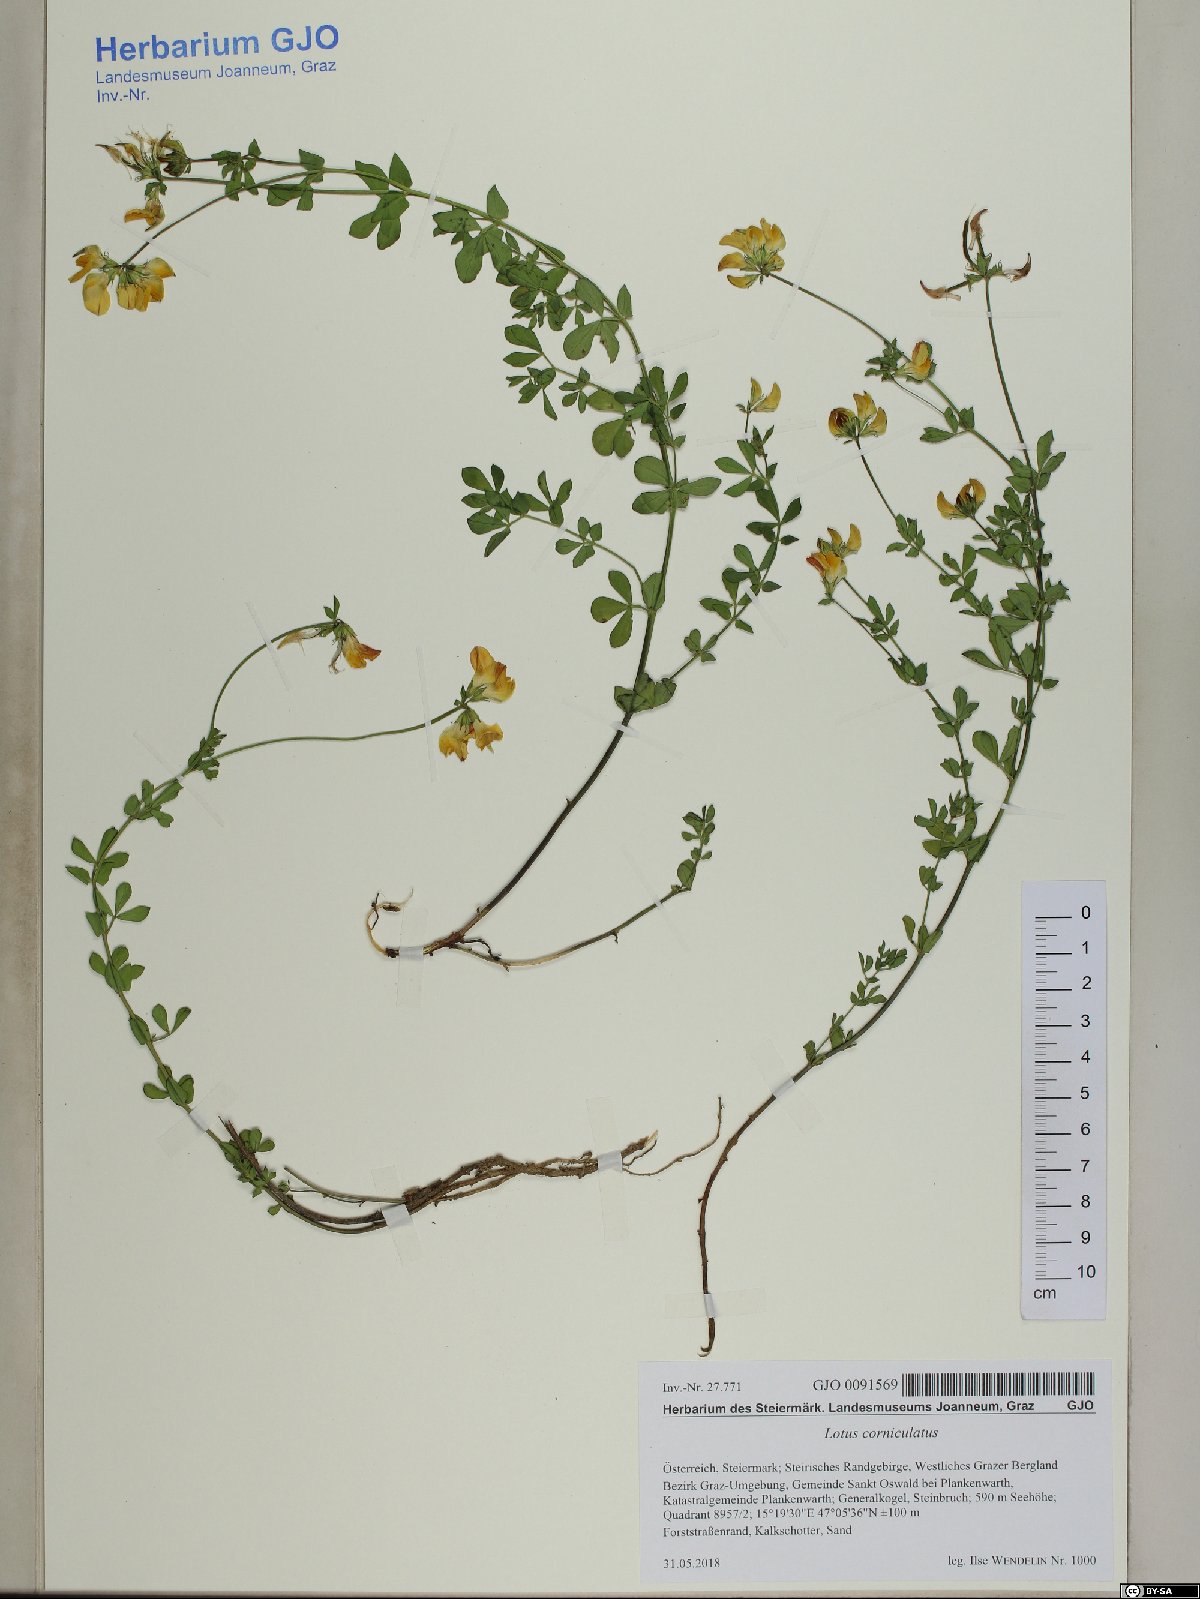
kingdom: Plantae
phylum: Tracheophyta
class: Magnoliopsida
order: Fabales
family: Fabaceae
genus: Lotus
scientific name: Lotus corniculatus
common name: Common bird's-foot-trefoil
